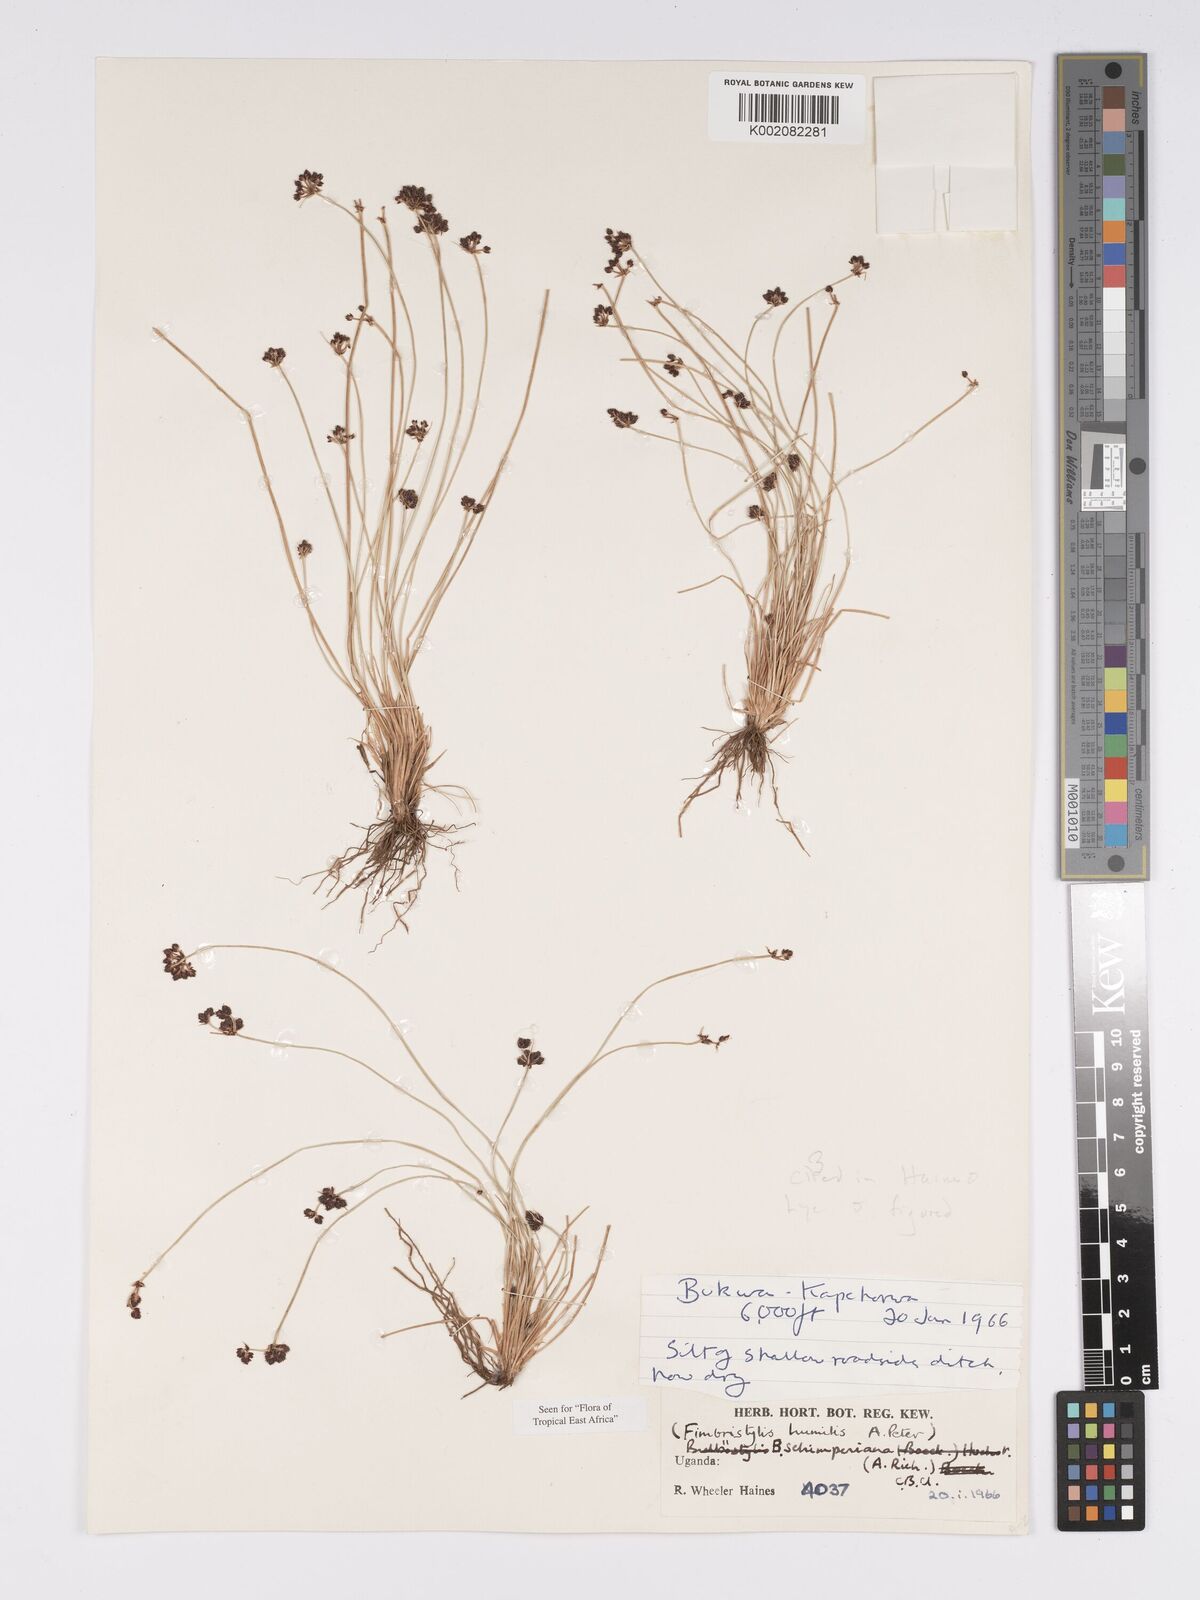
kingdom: Plantae
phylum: Tracheophyta
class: Liliopsida
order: Poales
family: Cyperaceae
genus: Bulbostylis
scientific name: Bulbostylis schimperiana
